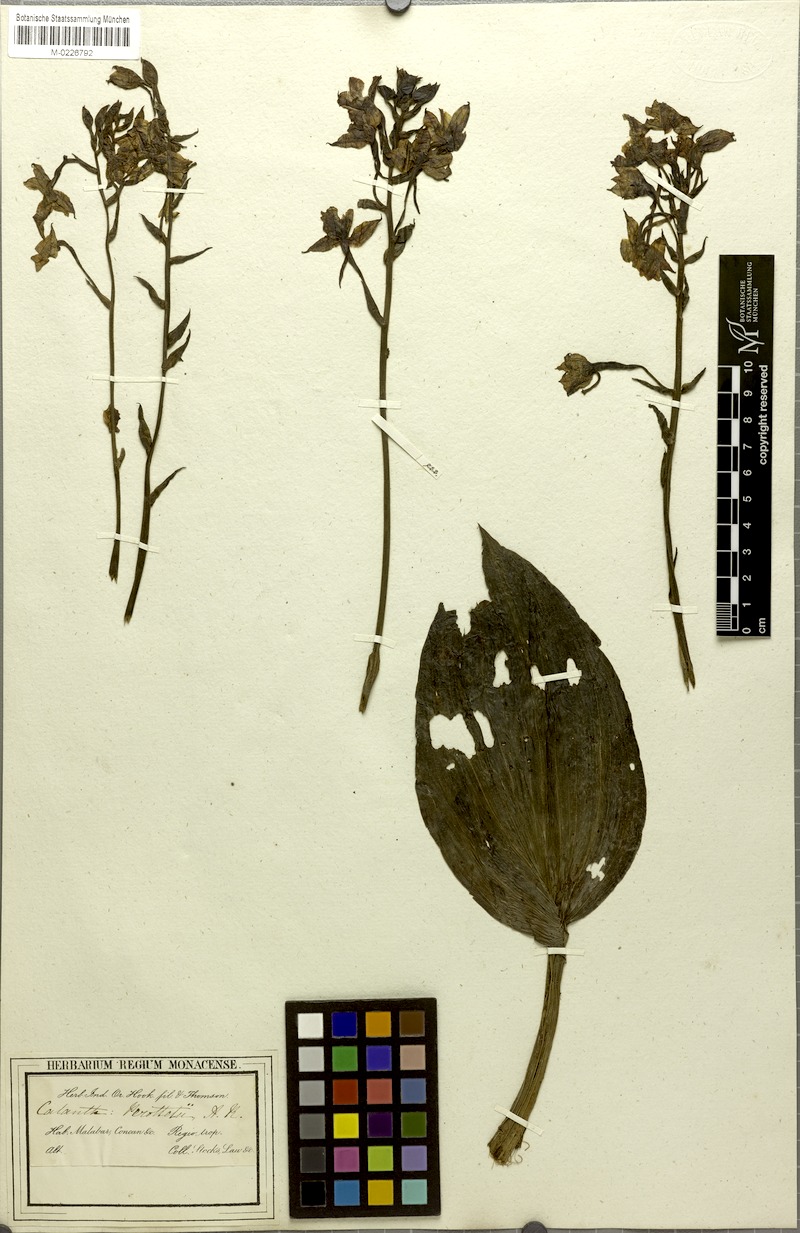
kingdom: Plantae
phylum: Tracheophyta
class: Liliopsida
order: Asparagales
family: Orchidaceae
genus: Calanthe
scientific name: Calanthe triplicata
